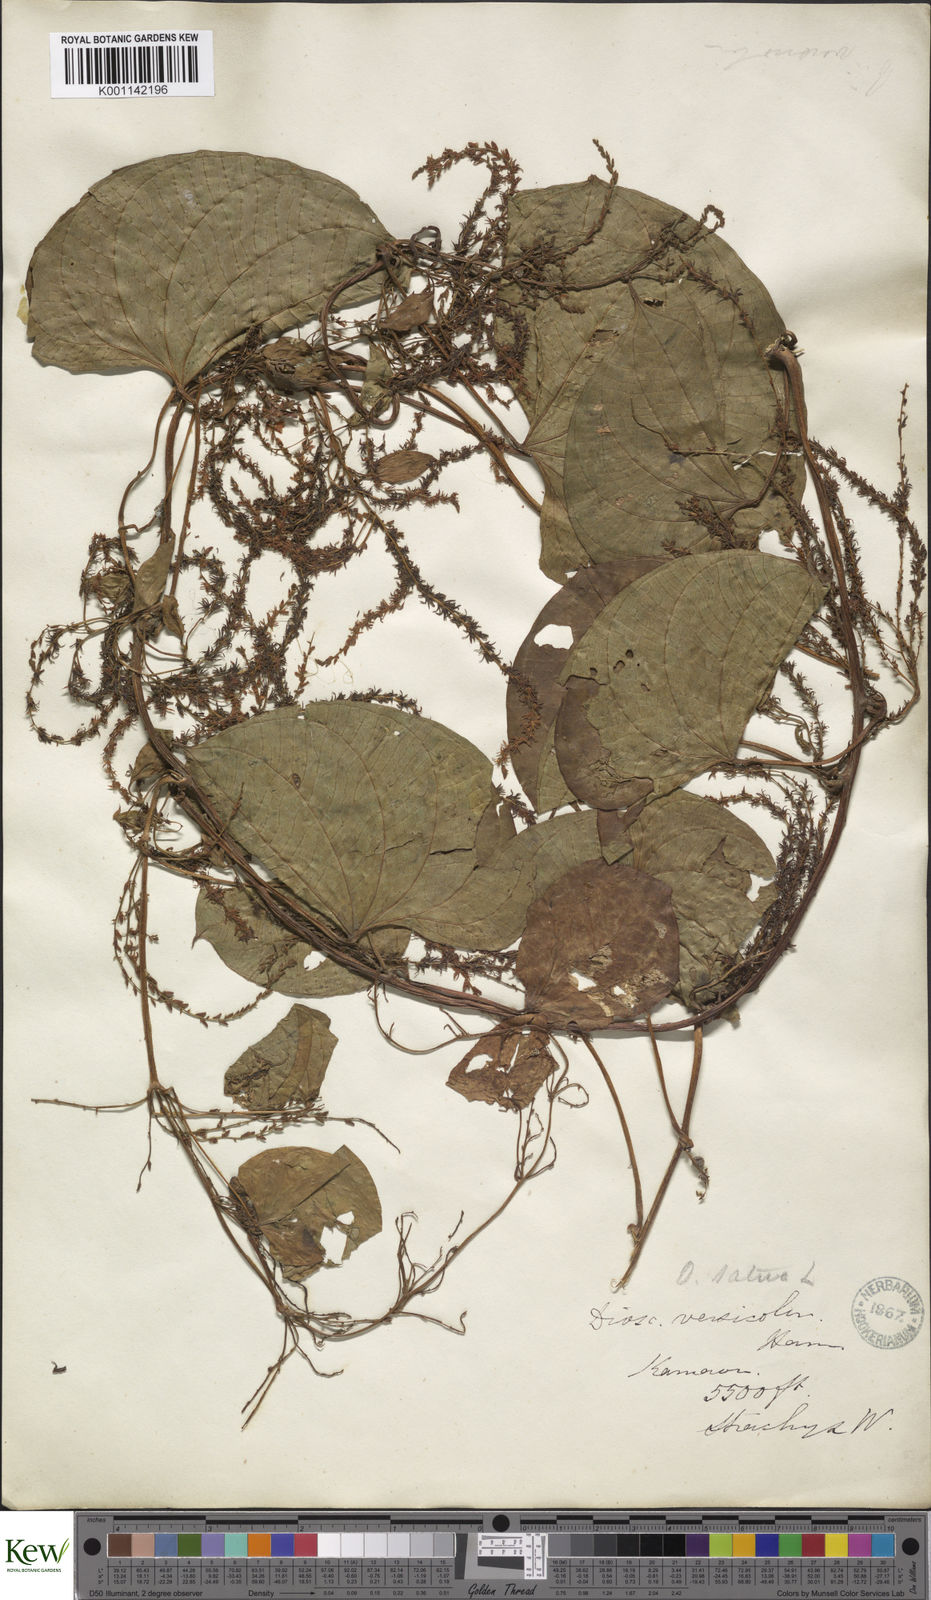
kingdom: Plantae
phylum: Tracheophyta
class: Liliopsida
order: Dioscoreales
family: Dioscoreaceae
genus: Dioscorea
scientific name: Dioscorea bulbifera
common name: Air yam
